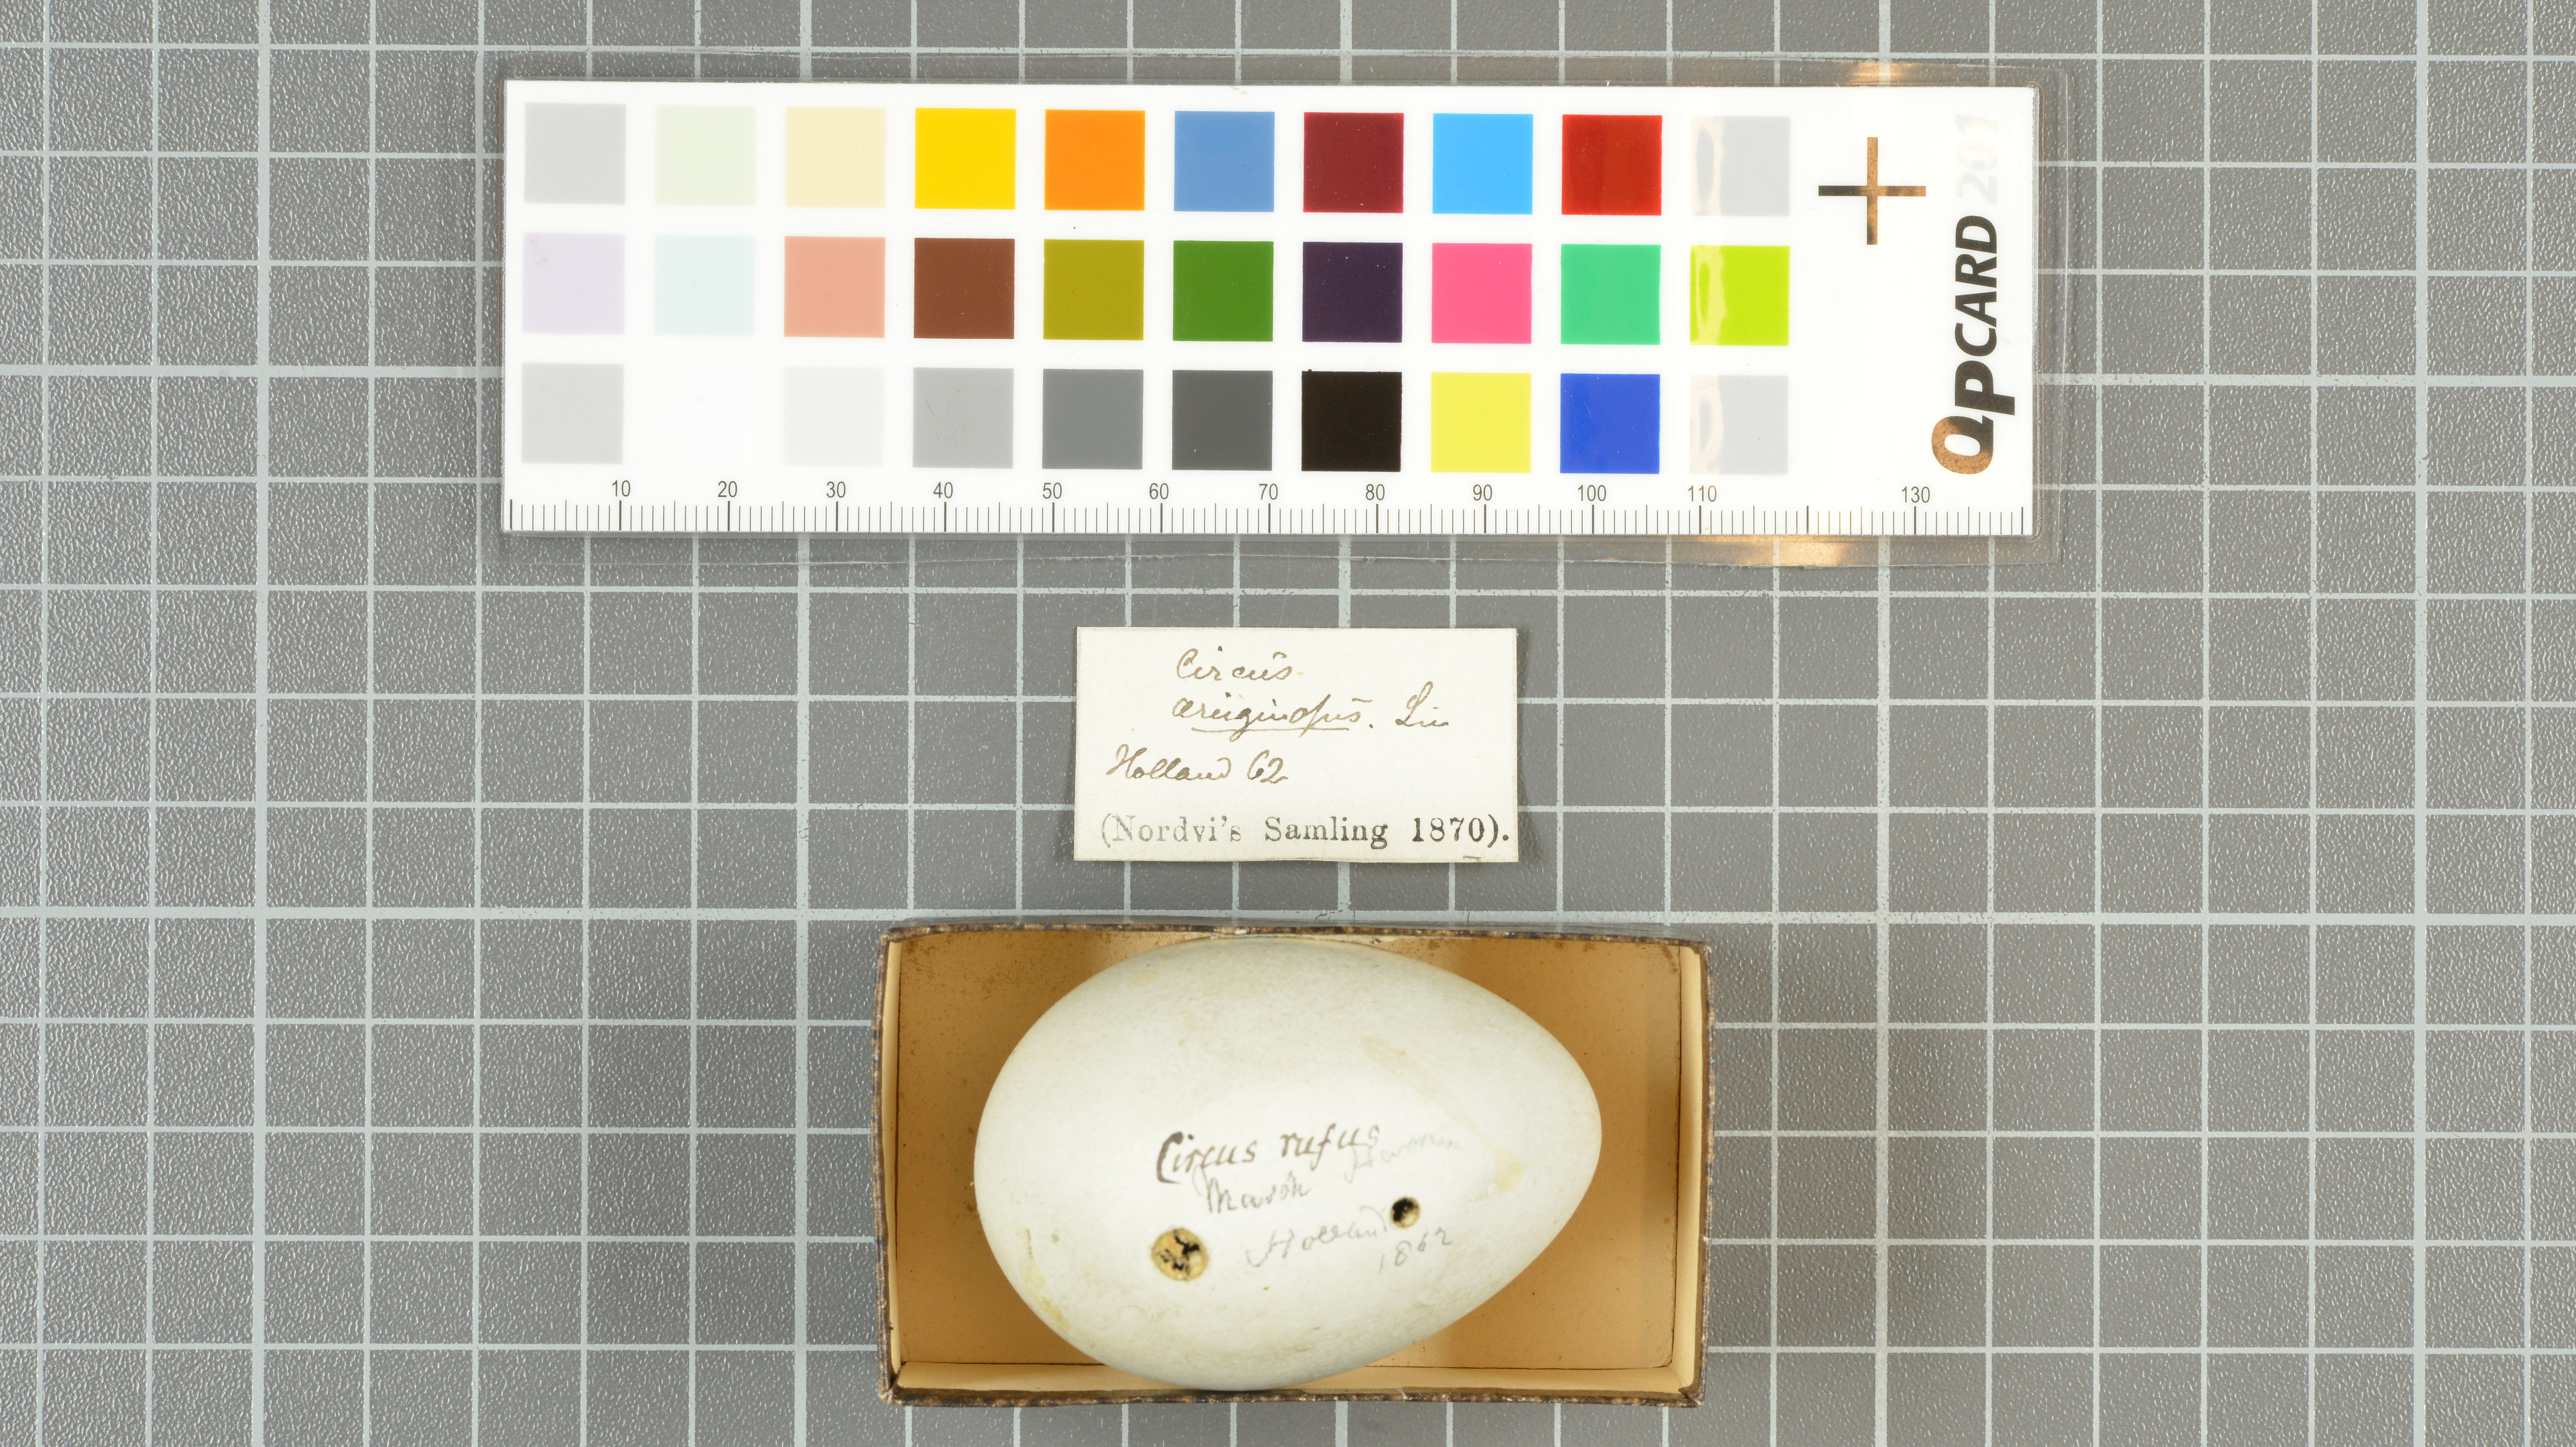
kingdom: Animalia
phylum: Chordata
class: Aves
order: Accipitriformes
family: Accipitridae
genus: Circus
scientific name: Circus aeruginosus
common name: Western marsh harrier
